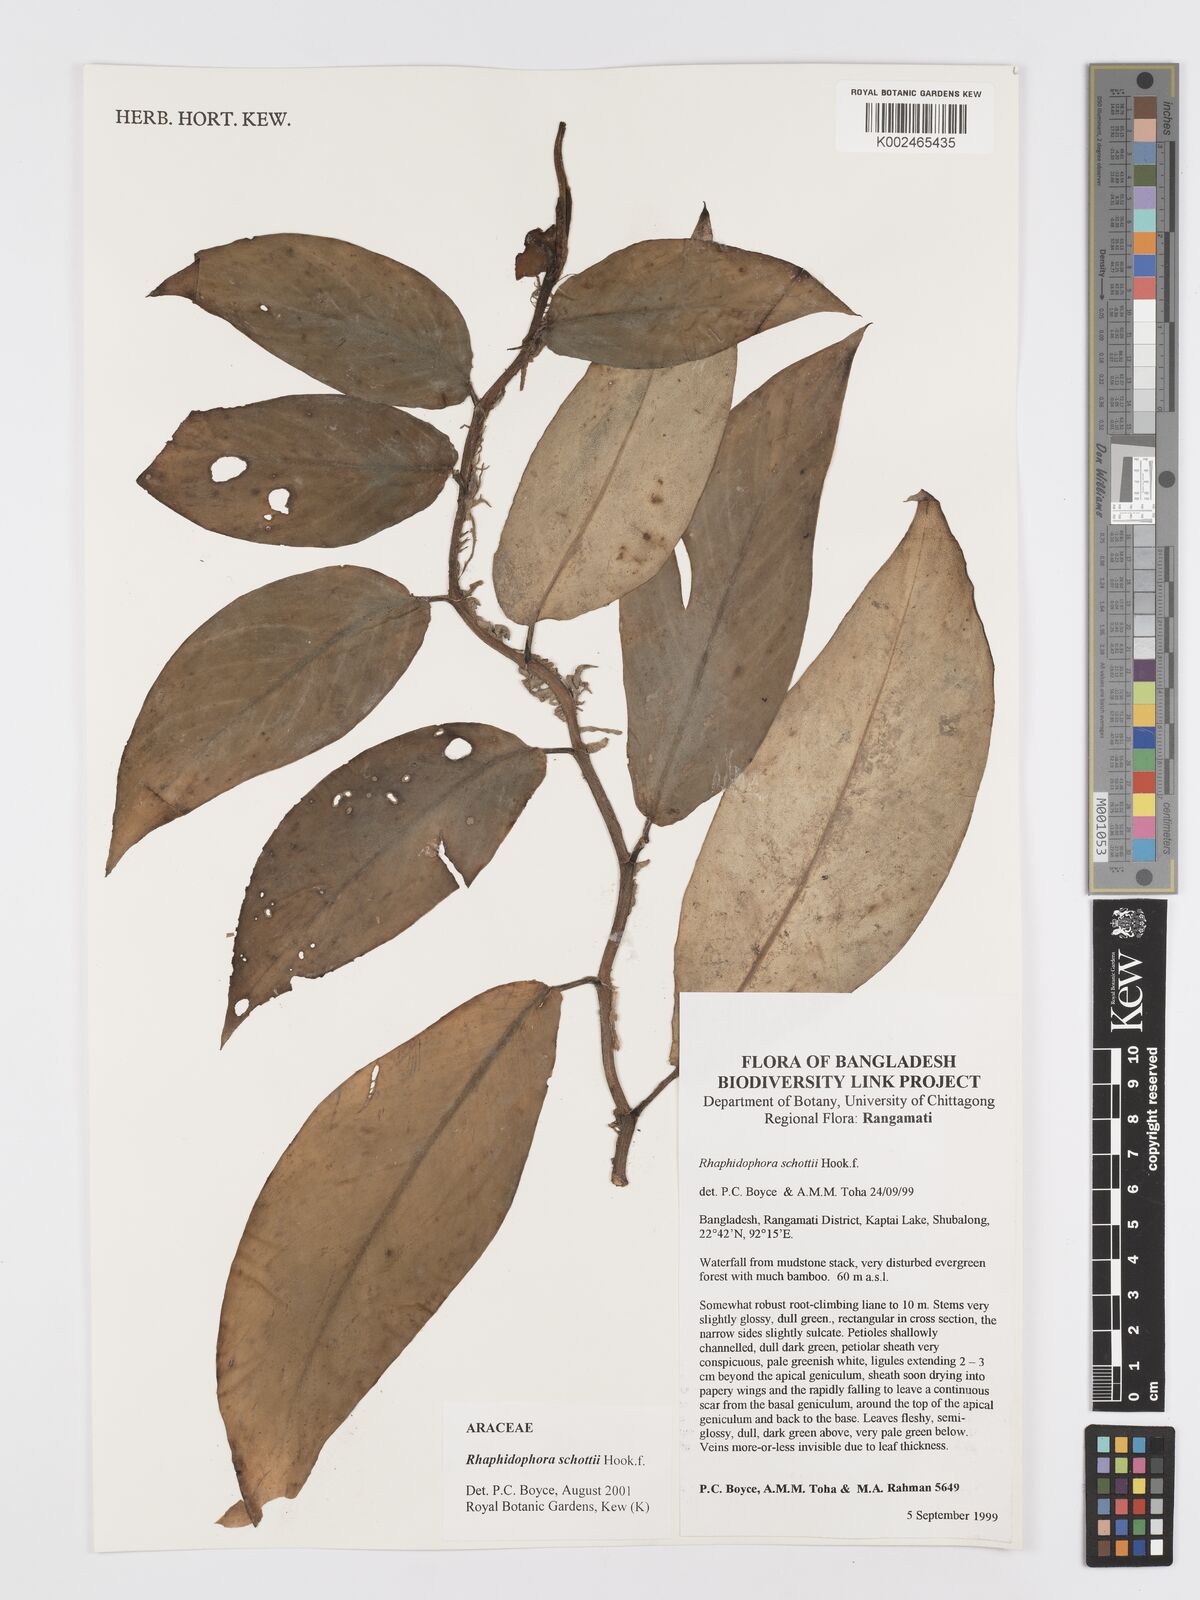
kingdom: Plantae
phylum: Tracheophyta
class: Liliopsida
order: Alismatales
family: Araceae
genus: Rhaphidophora
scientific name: Rhaphidophora schottii
